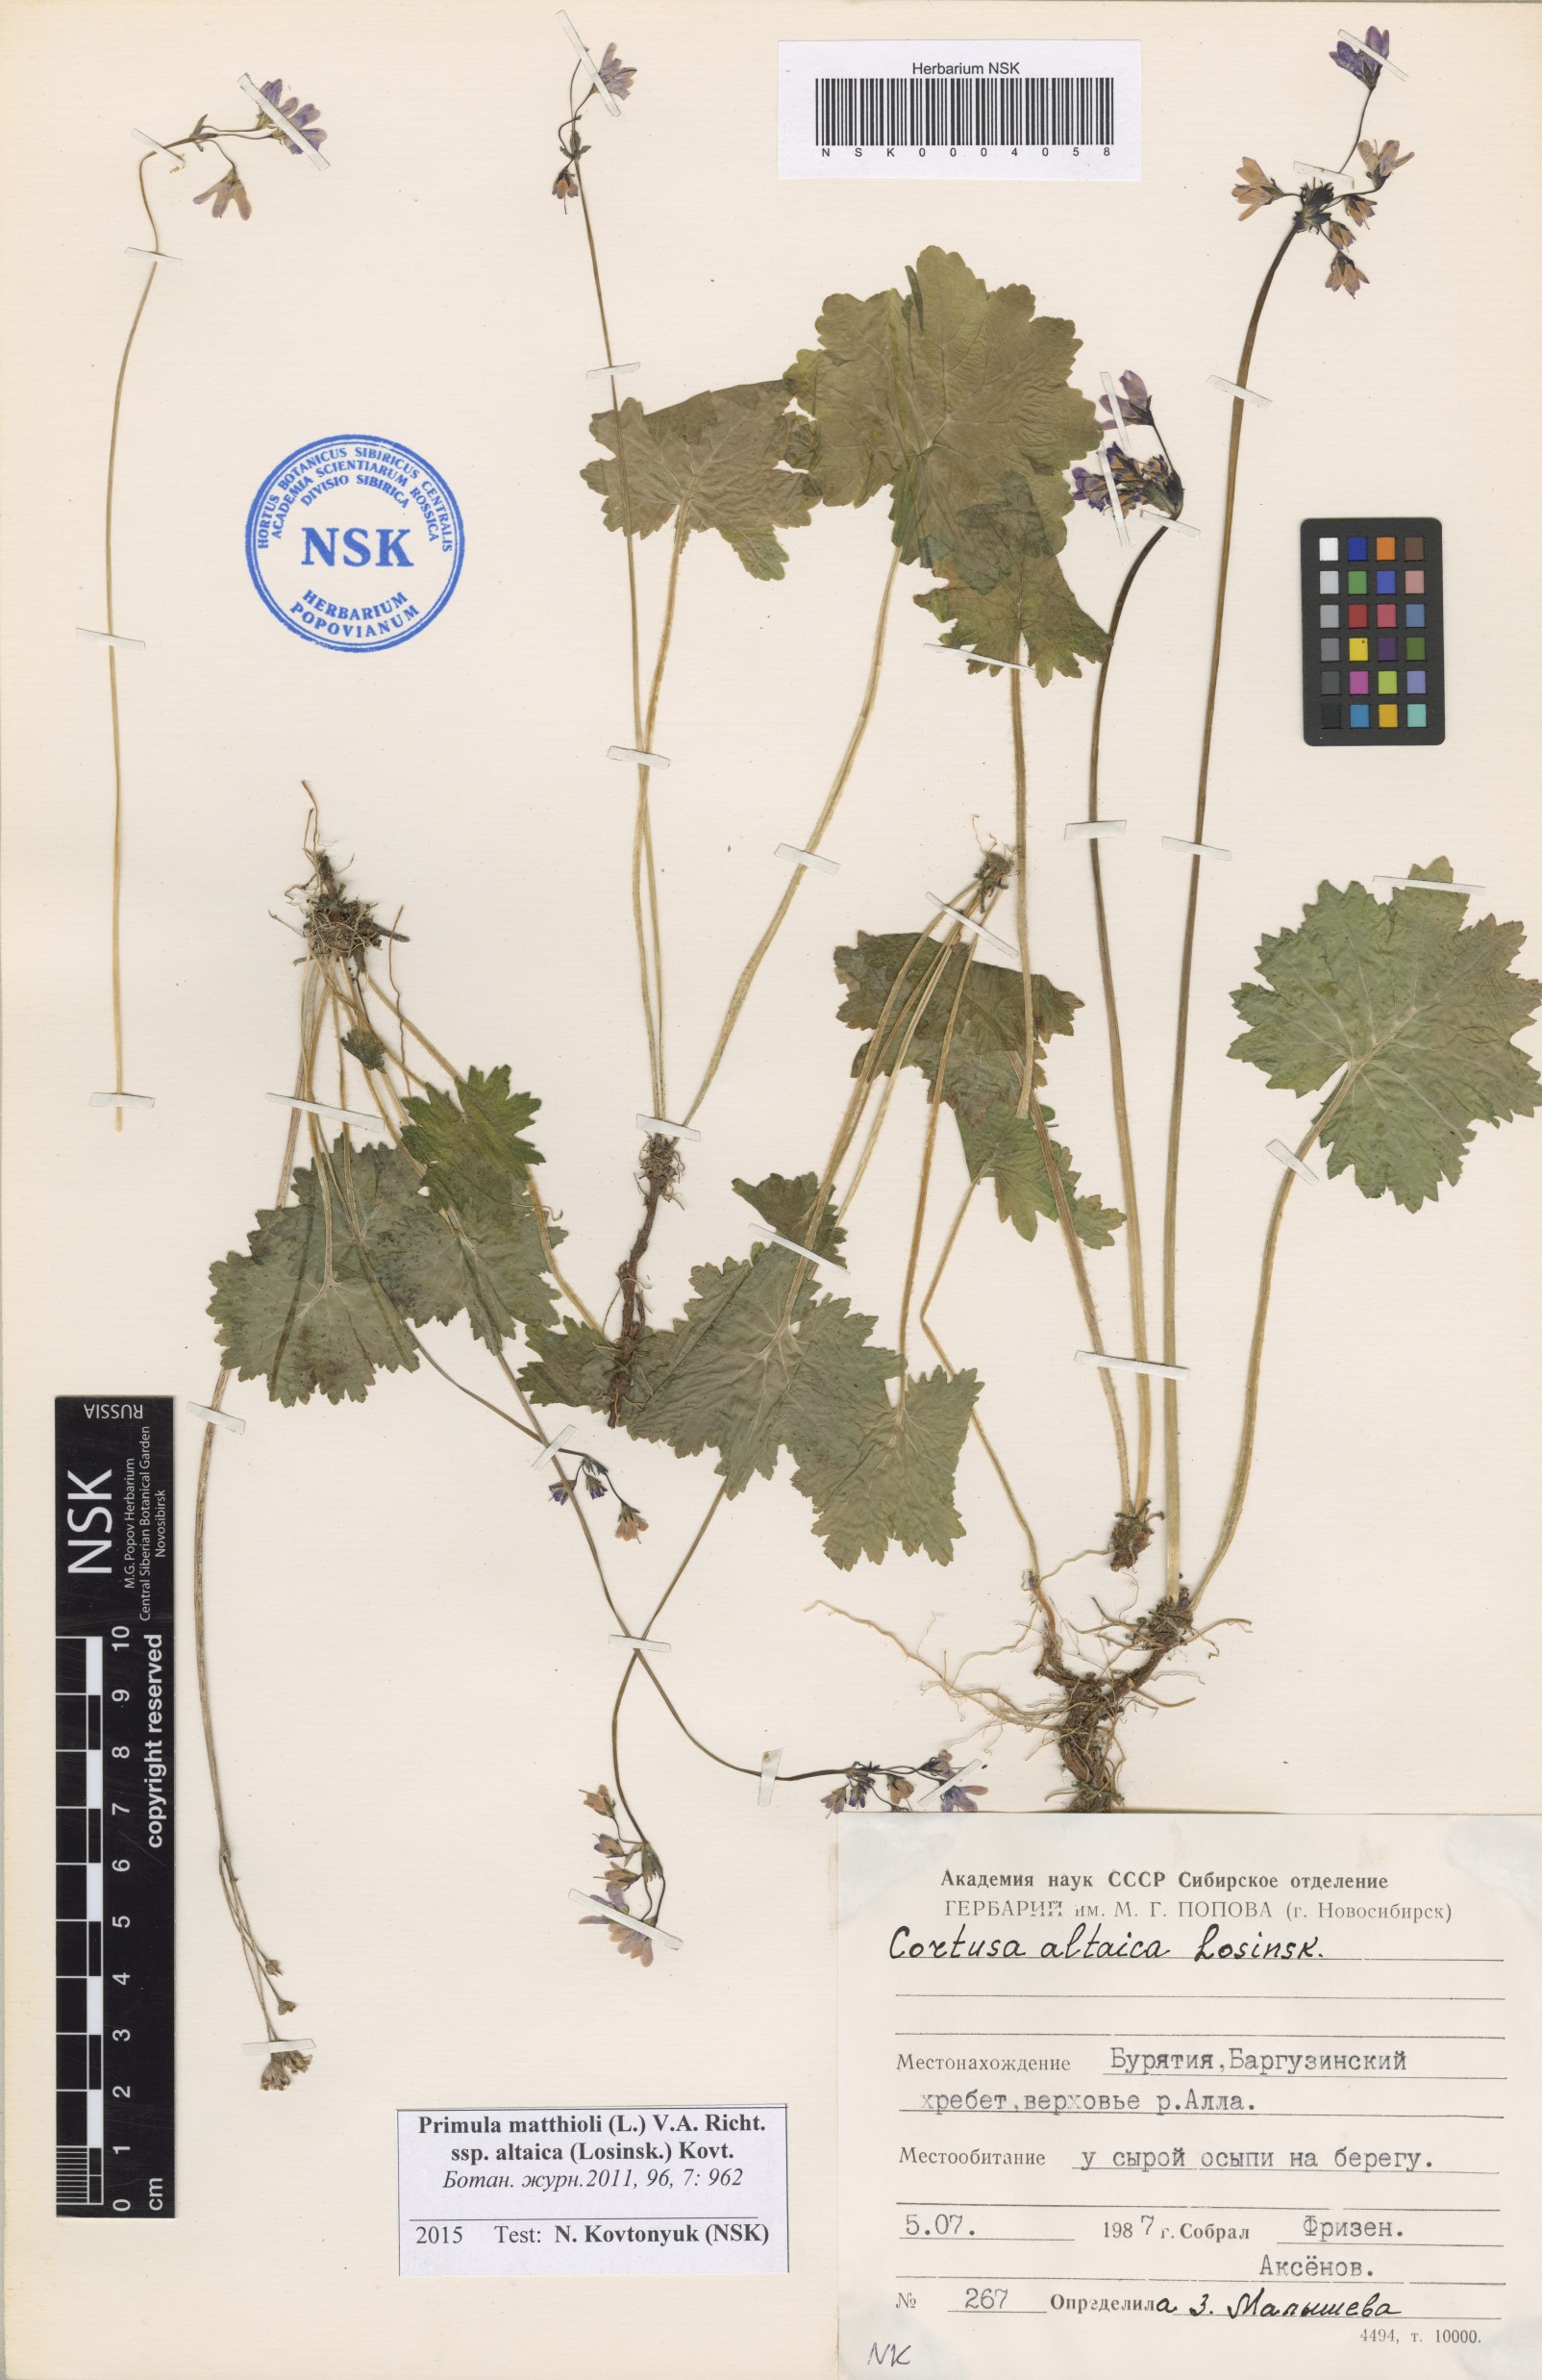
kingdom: Plantae
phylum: Tracheophyta
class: Magnoliopsida
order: Ericales
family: Primulaceae
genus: Primula
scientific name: Primula matthioli
